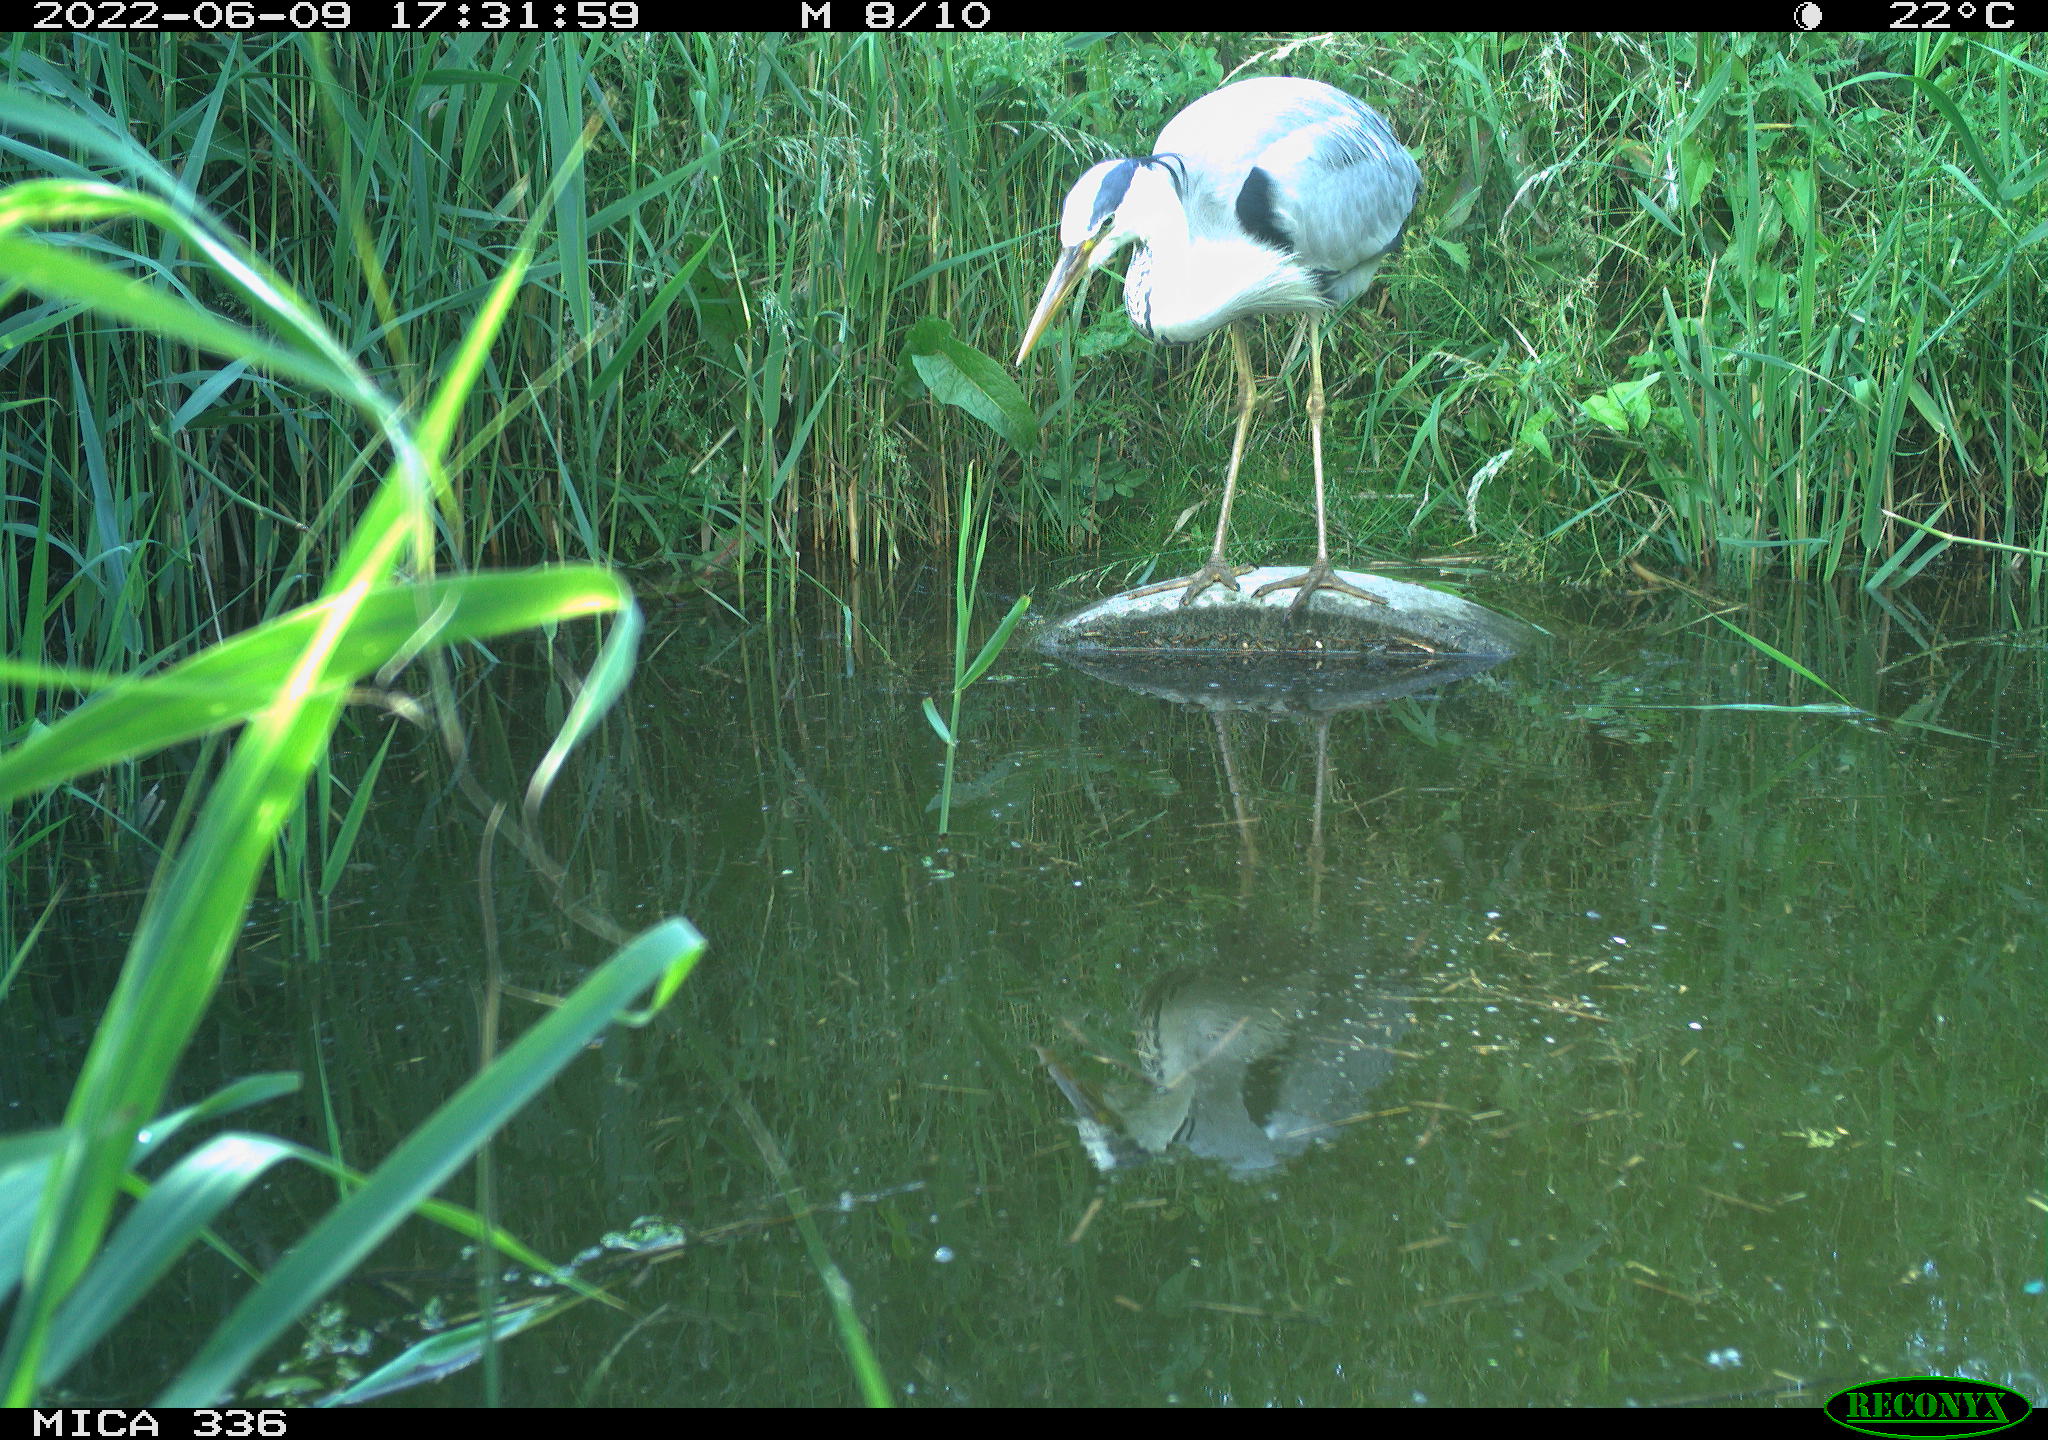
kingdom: Animalia
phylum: Chordata
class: Aves
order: Pelecaniformes
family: Ardeidae
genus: Ardea
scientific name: Ardea cinerea
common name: Grey heron
